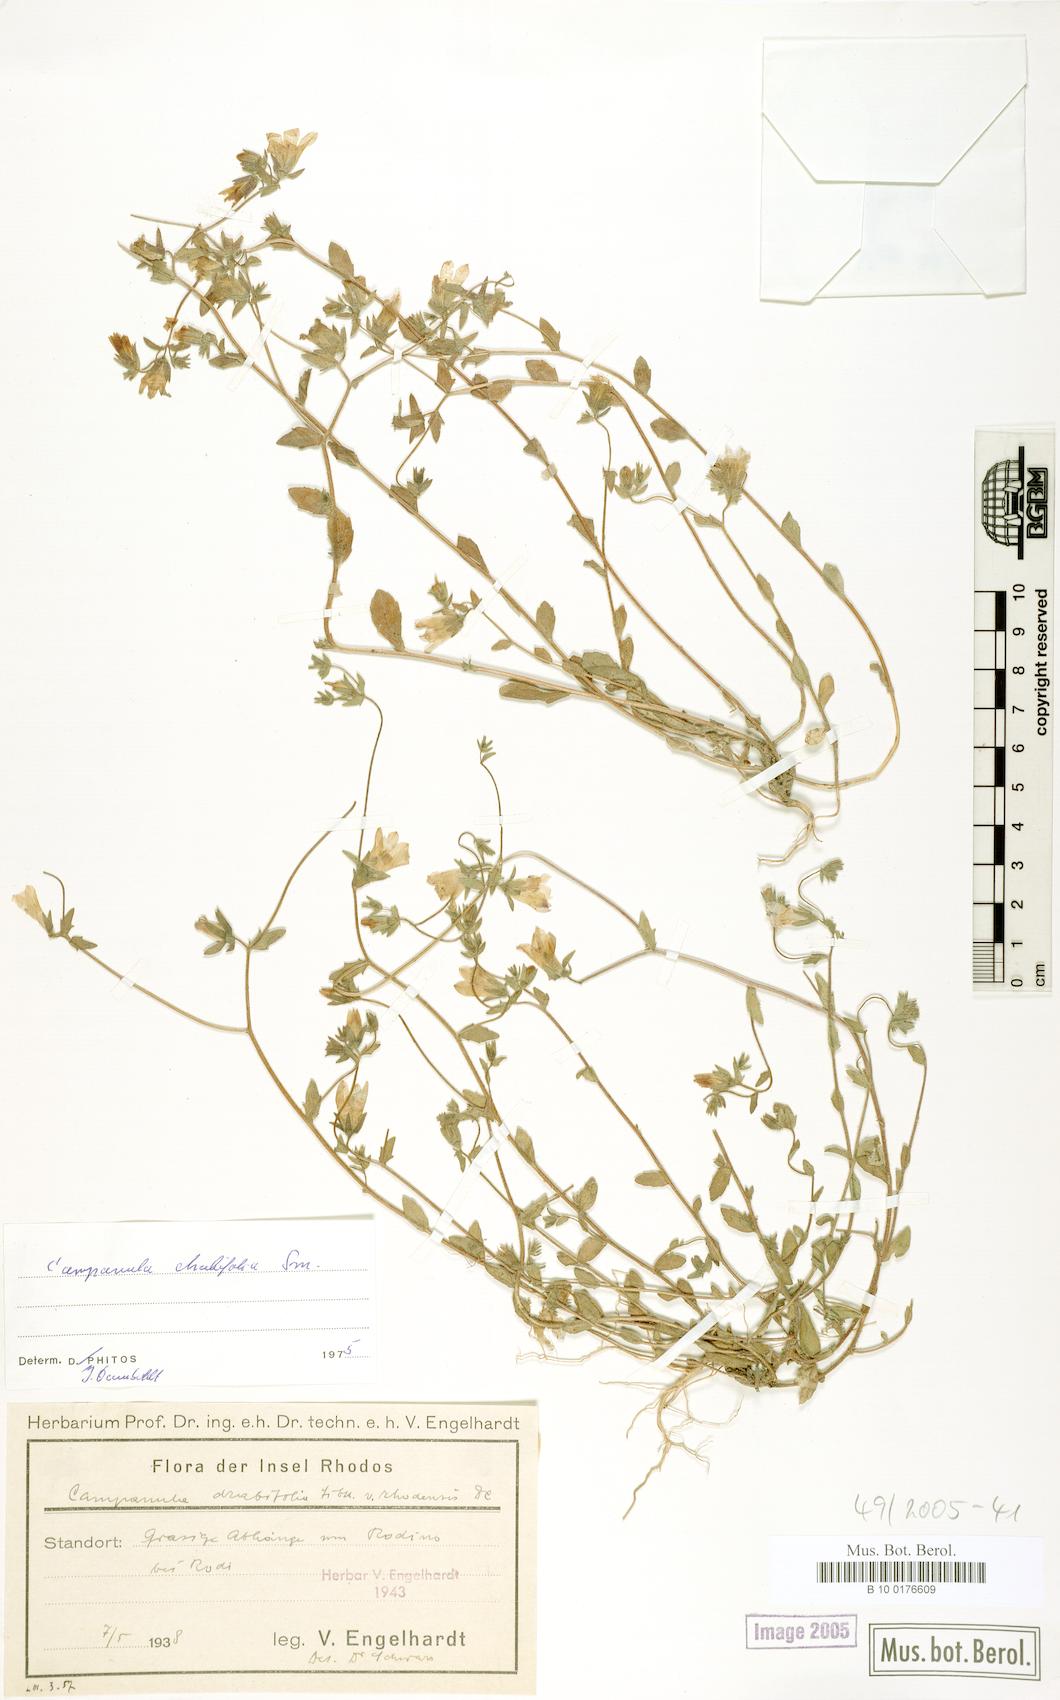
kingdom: Plantae
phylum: Tracheophyta
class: Magnoliopsida
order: Asterales
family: Campanulaceae
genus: Campanula
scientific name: Campanula drabifolia
